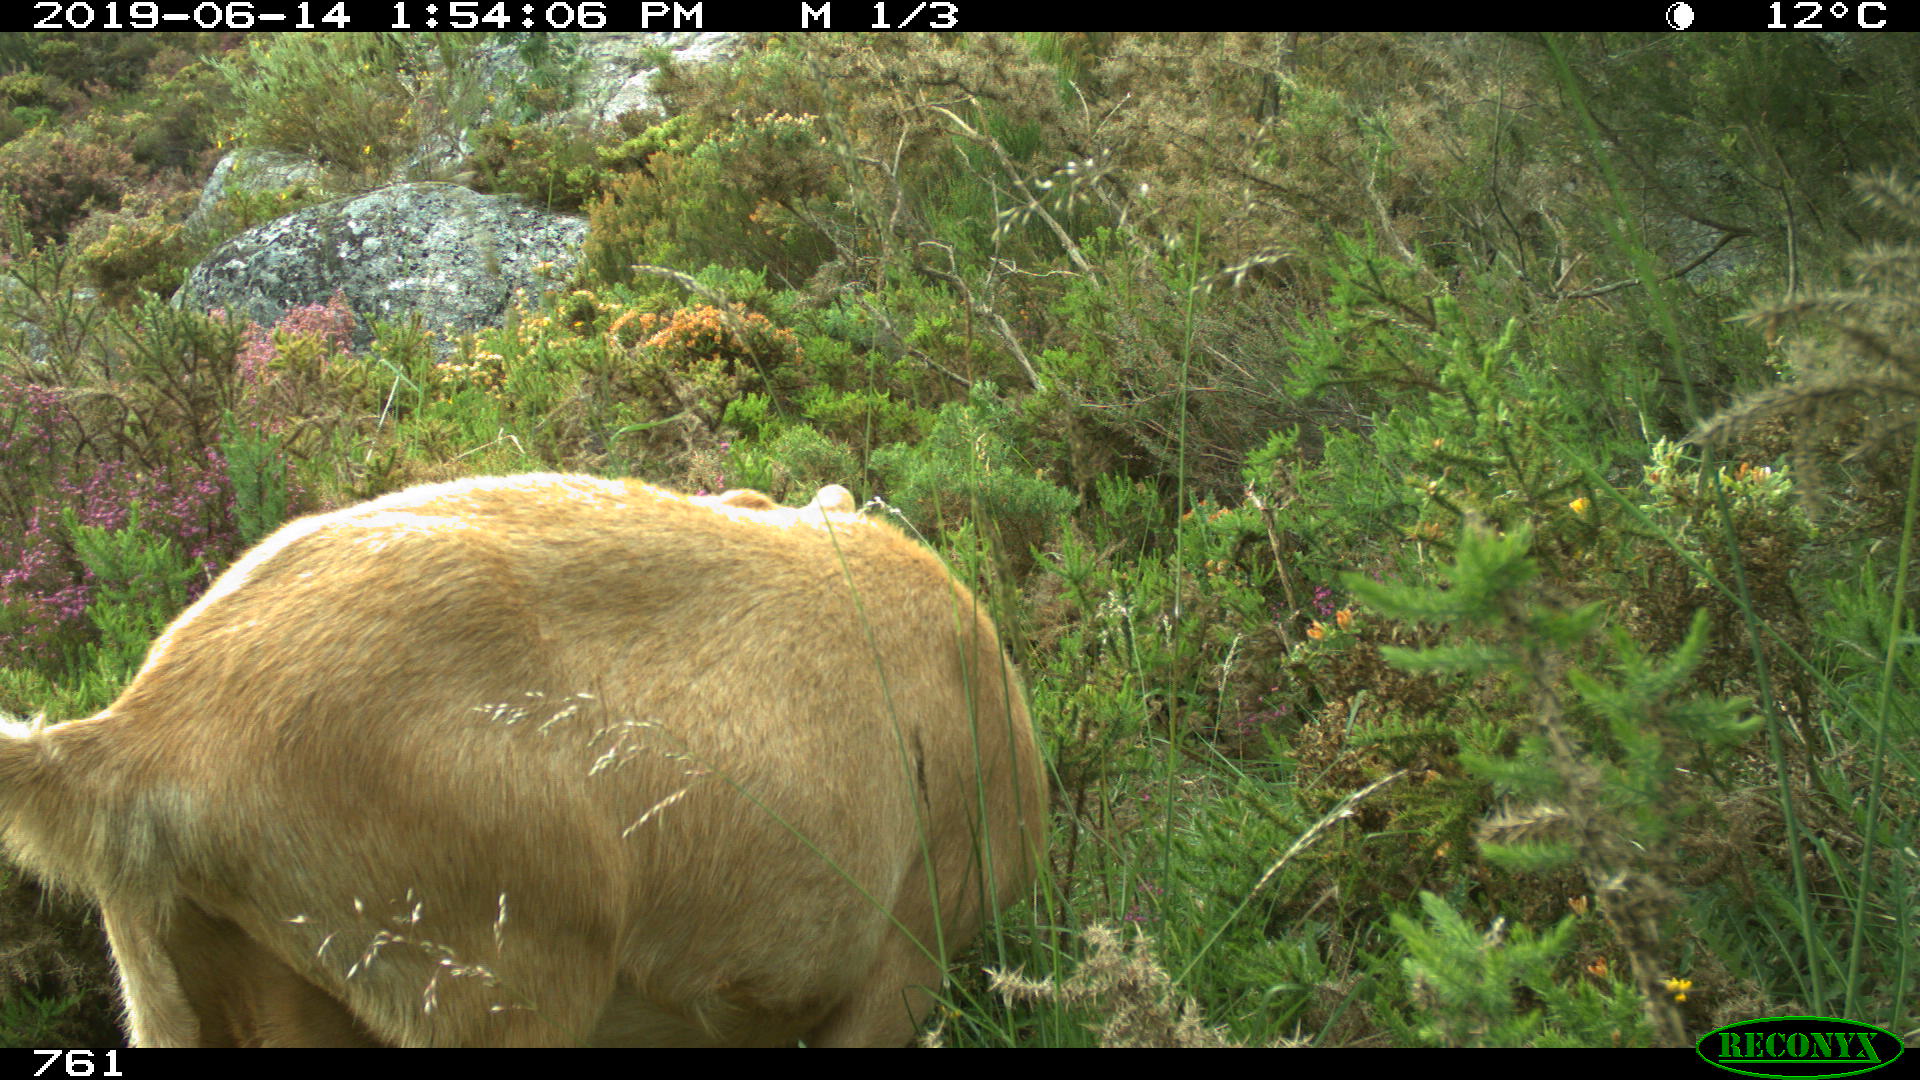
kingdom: Animalia
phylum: Chordata
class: Mammalia
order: Carnivora
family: Canidae
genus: Canis
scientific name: Canis lupus
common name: Gray wolf
